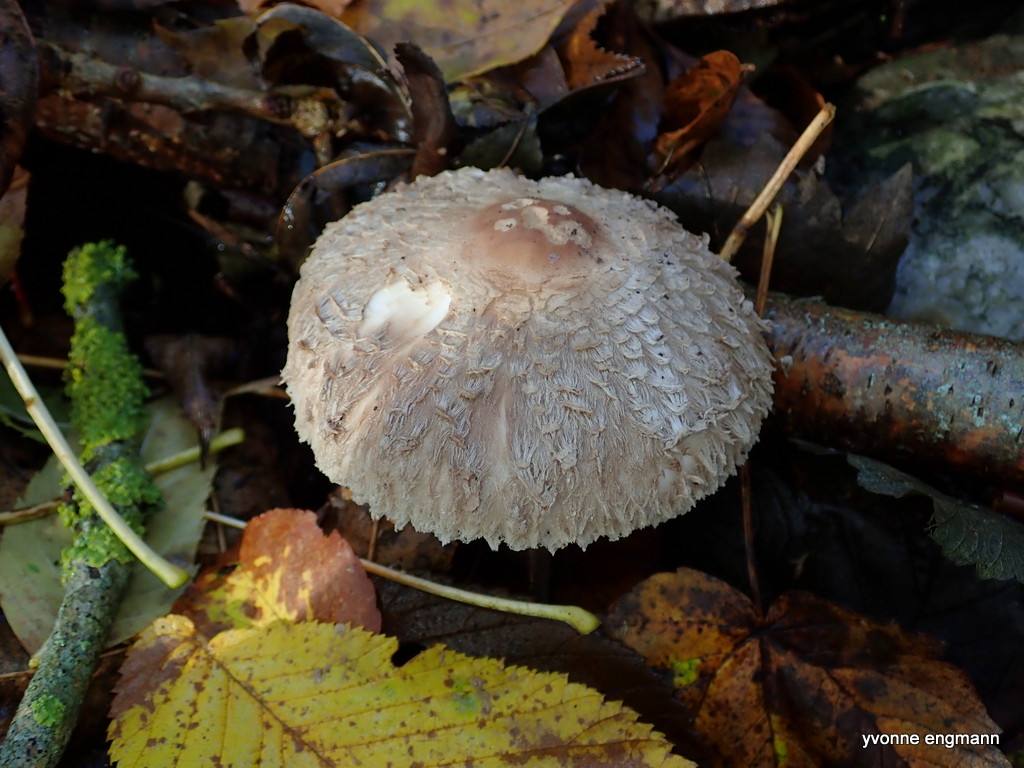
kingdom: Fungi
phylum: Basidiomycota
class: Agaricomycetes
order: Agaricales
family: Agaricaceae
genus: Chlorophyllum
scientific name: Chlorophyllum olivieri
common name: almindelig rabarberhat
